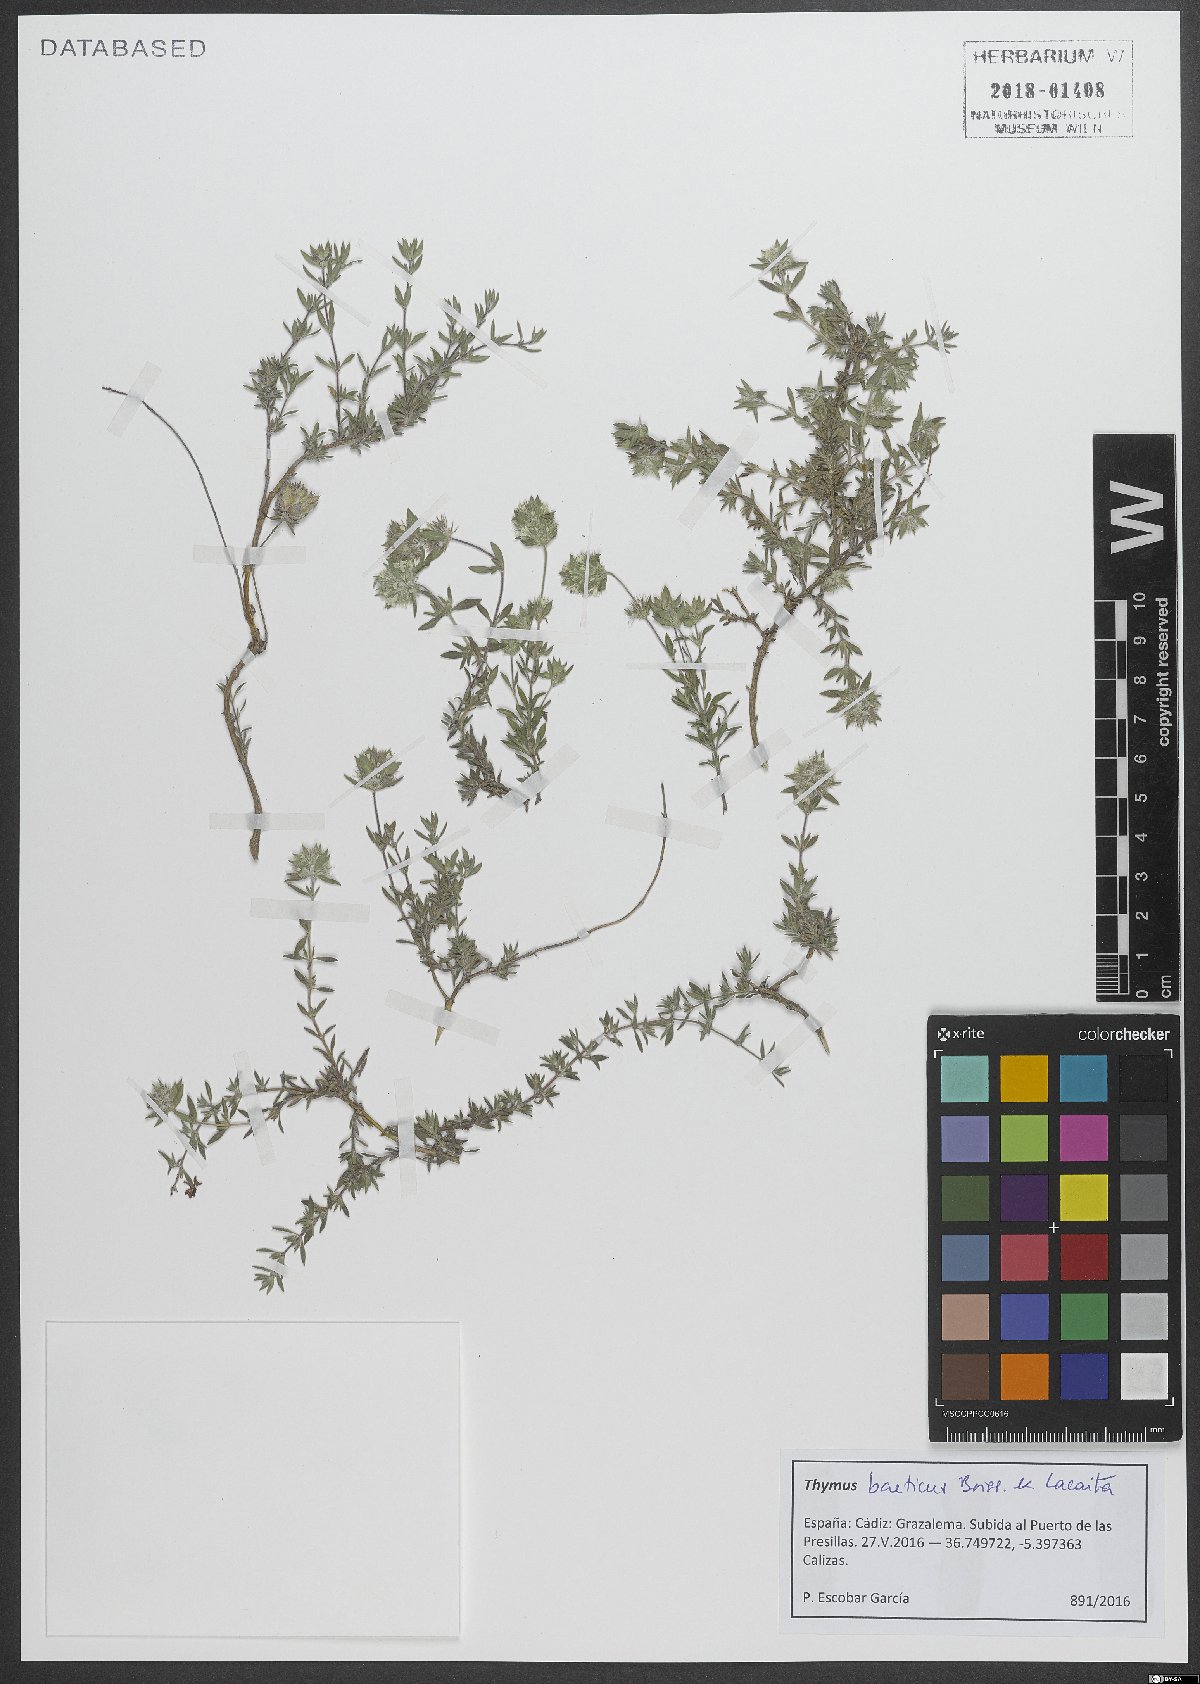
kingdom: Plantae
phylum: Tracheophyta
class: Magnoliopsida
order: Lamiales
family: Lamiaceae
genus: Thymus
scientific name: Thymus baeticus
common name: Spanish lemon thyme
